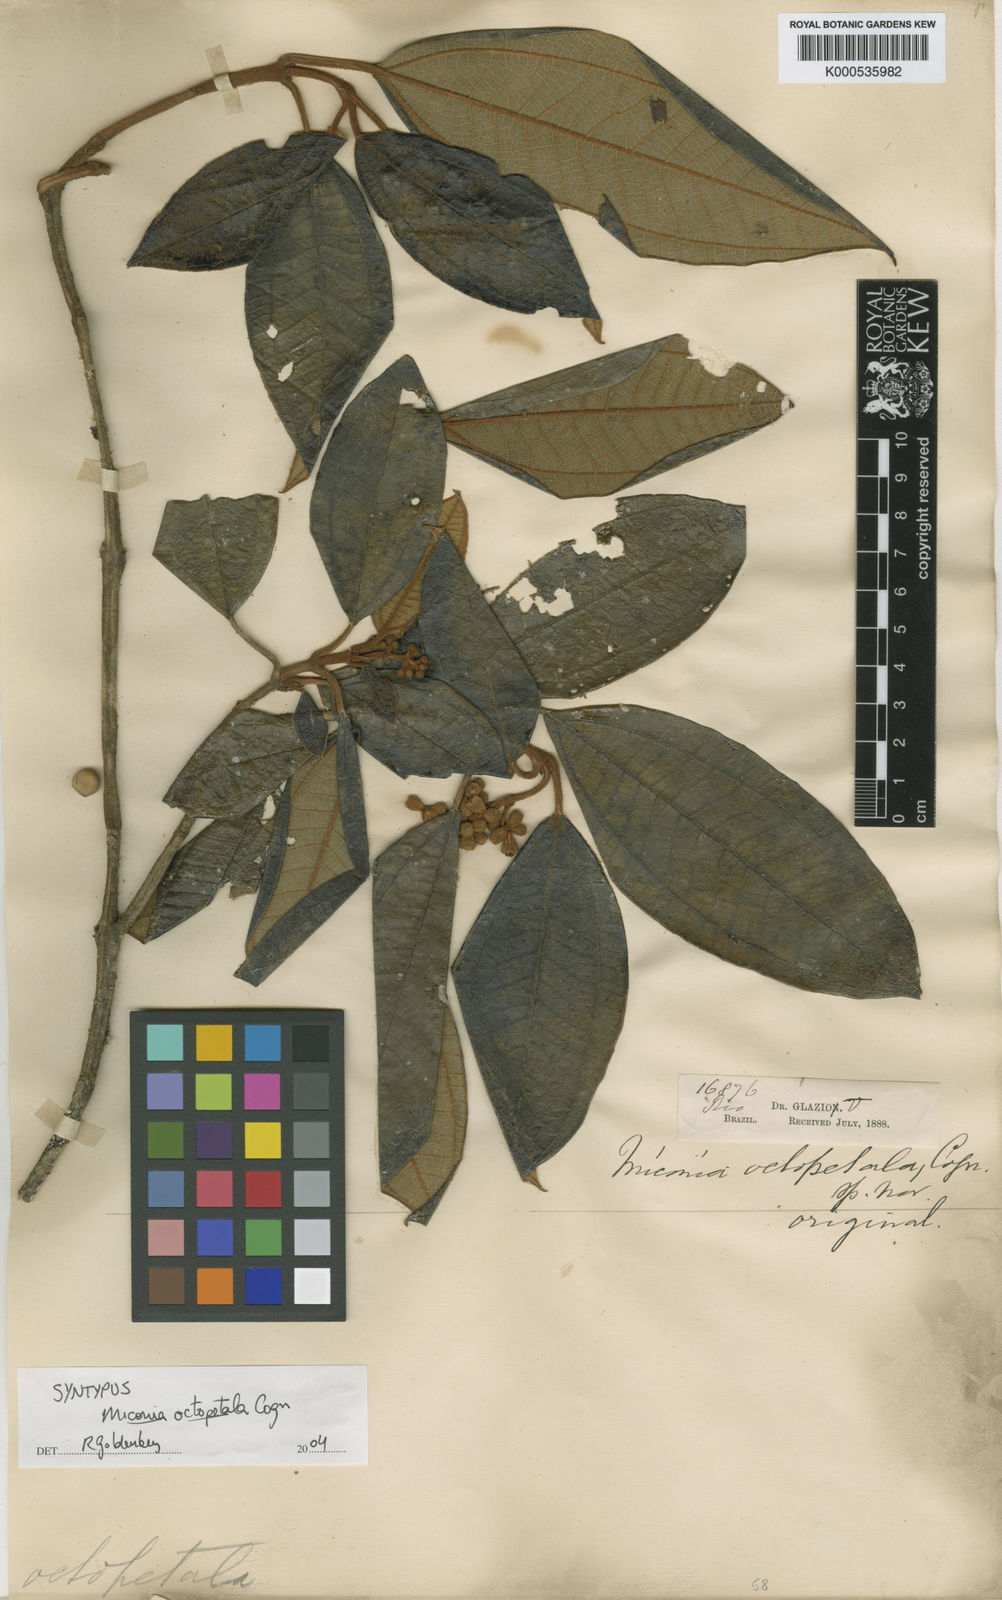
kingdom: Plantae
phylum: Tracheophyta
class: Magnoliopsida
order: Myrtales
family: Melastomataceae
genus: Miconia
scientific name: Miconia octopetala
